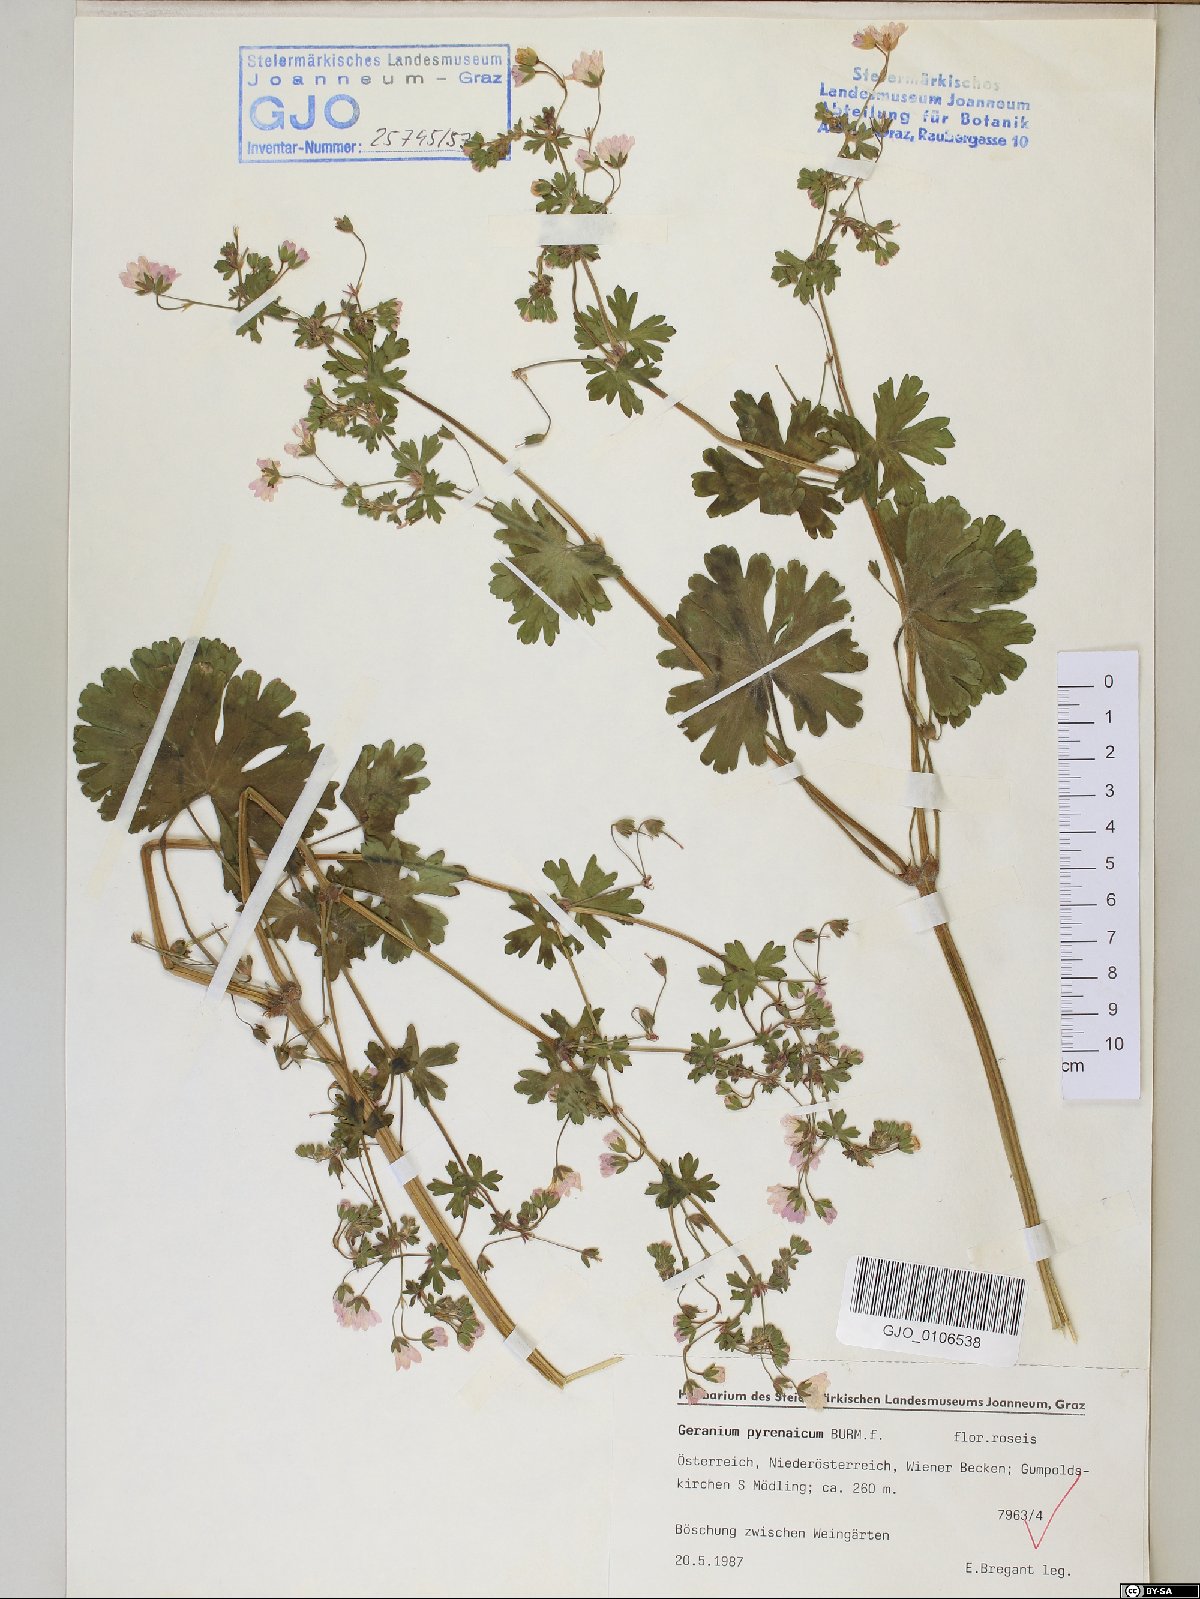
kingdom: Plantae
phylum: Tracheophyta
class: Magnoliopsida
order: Geraniales
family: Geraniaceae
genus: Geranium
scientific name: Geranium pyrenaicum
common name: Hedgerow crane's-bill
